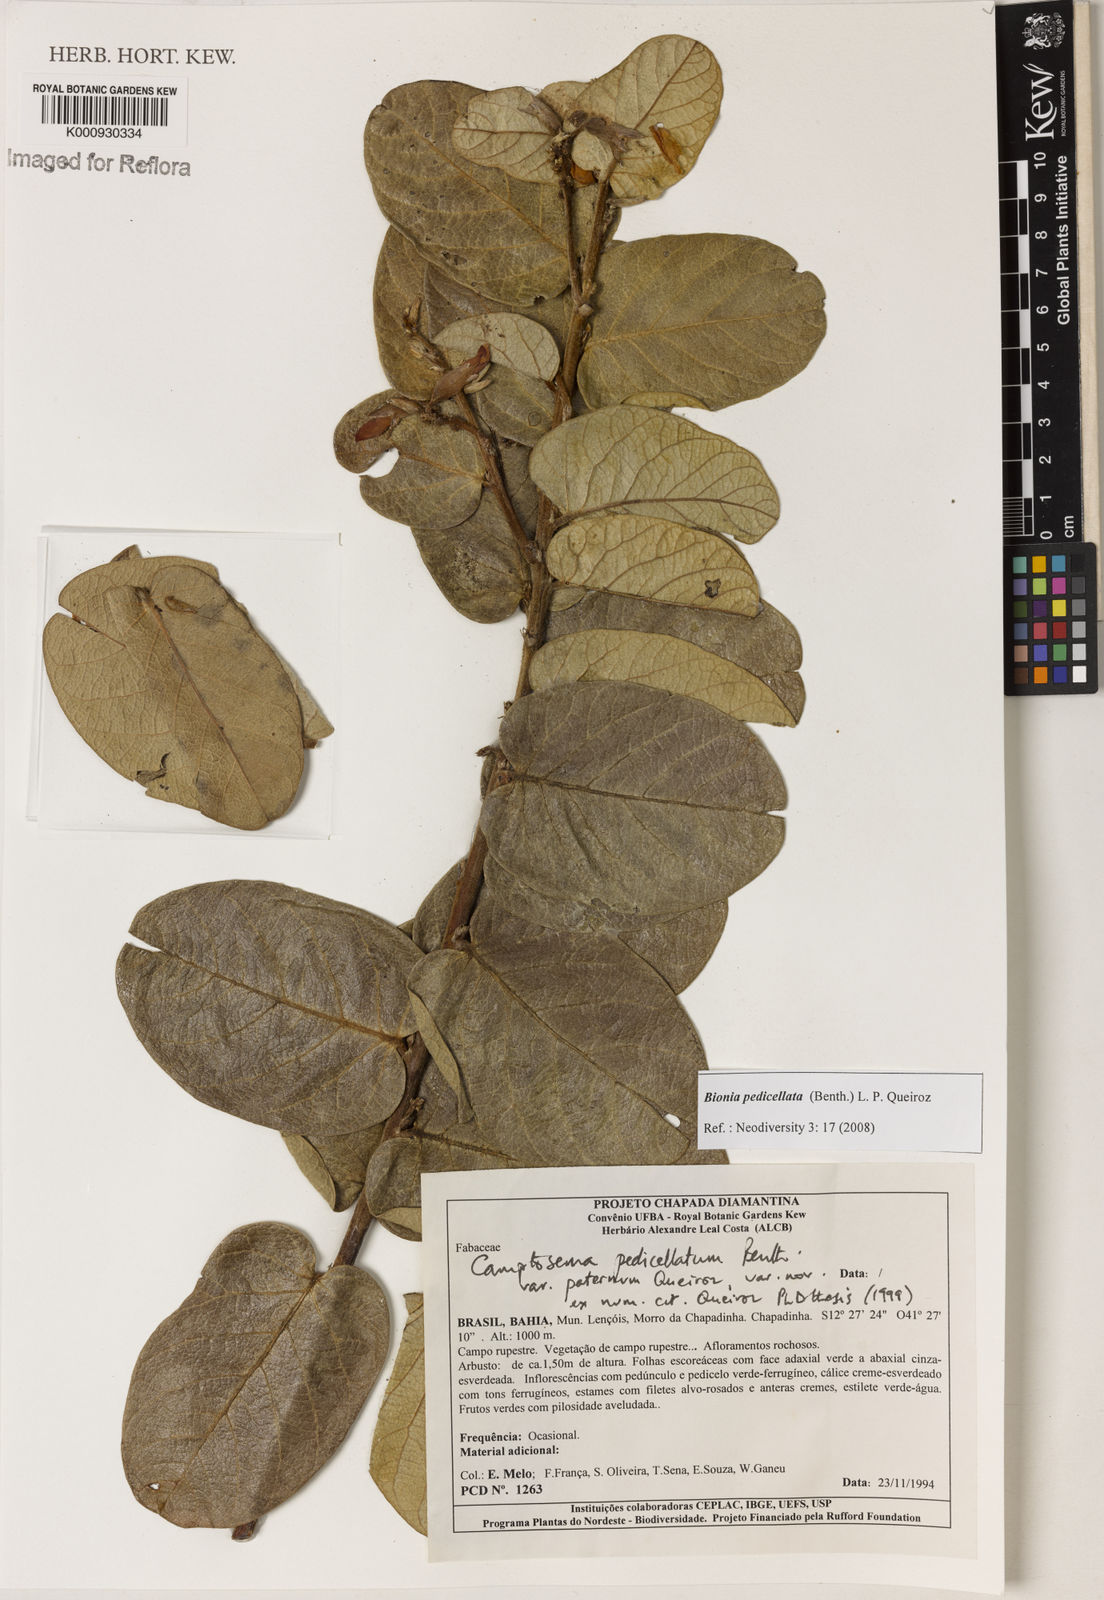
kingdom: Plantae
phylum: Tracheophyta
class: Magnoliopsida
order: Fabales
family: Fabaceae
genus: Camptosema
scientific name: Camptosema pedicellatum
